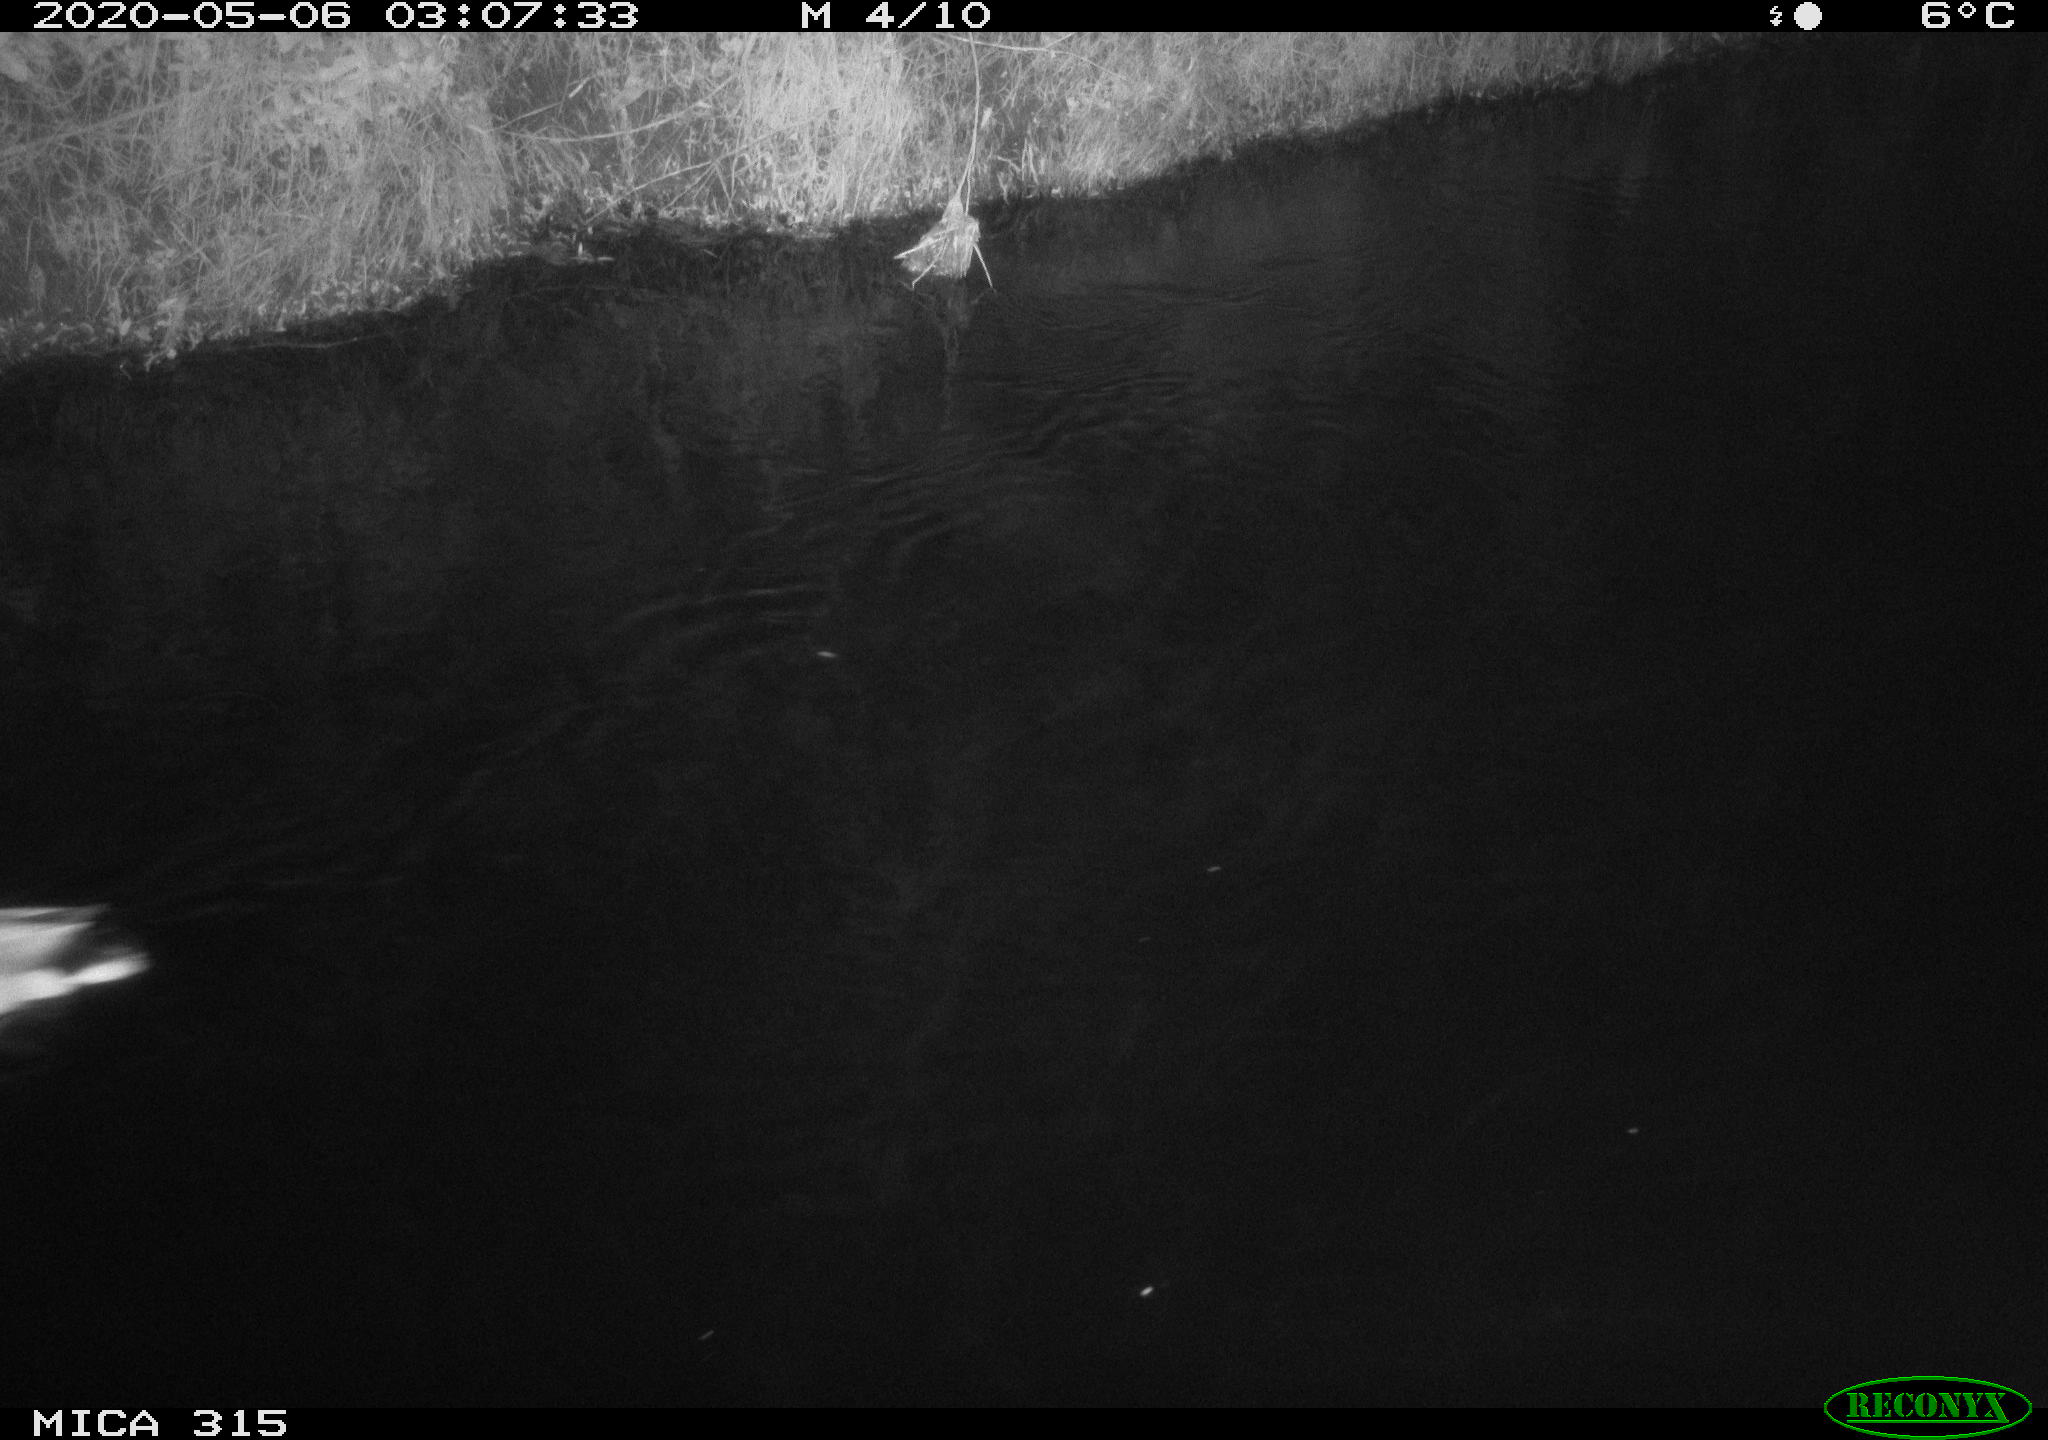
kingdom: Animalia
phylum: Chordata
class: Aves
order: Anseriformes
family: Anatidae
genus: Anas
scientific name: Anas platyrhynchos
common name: Mallard
